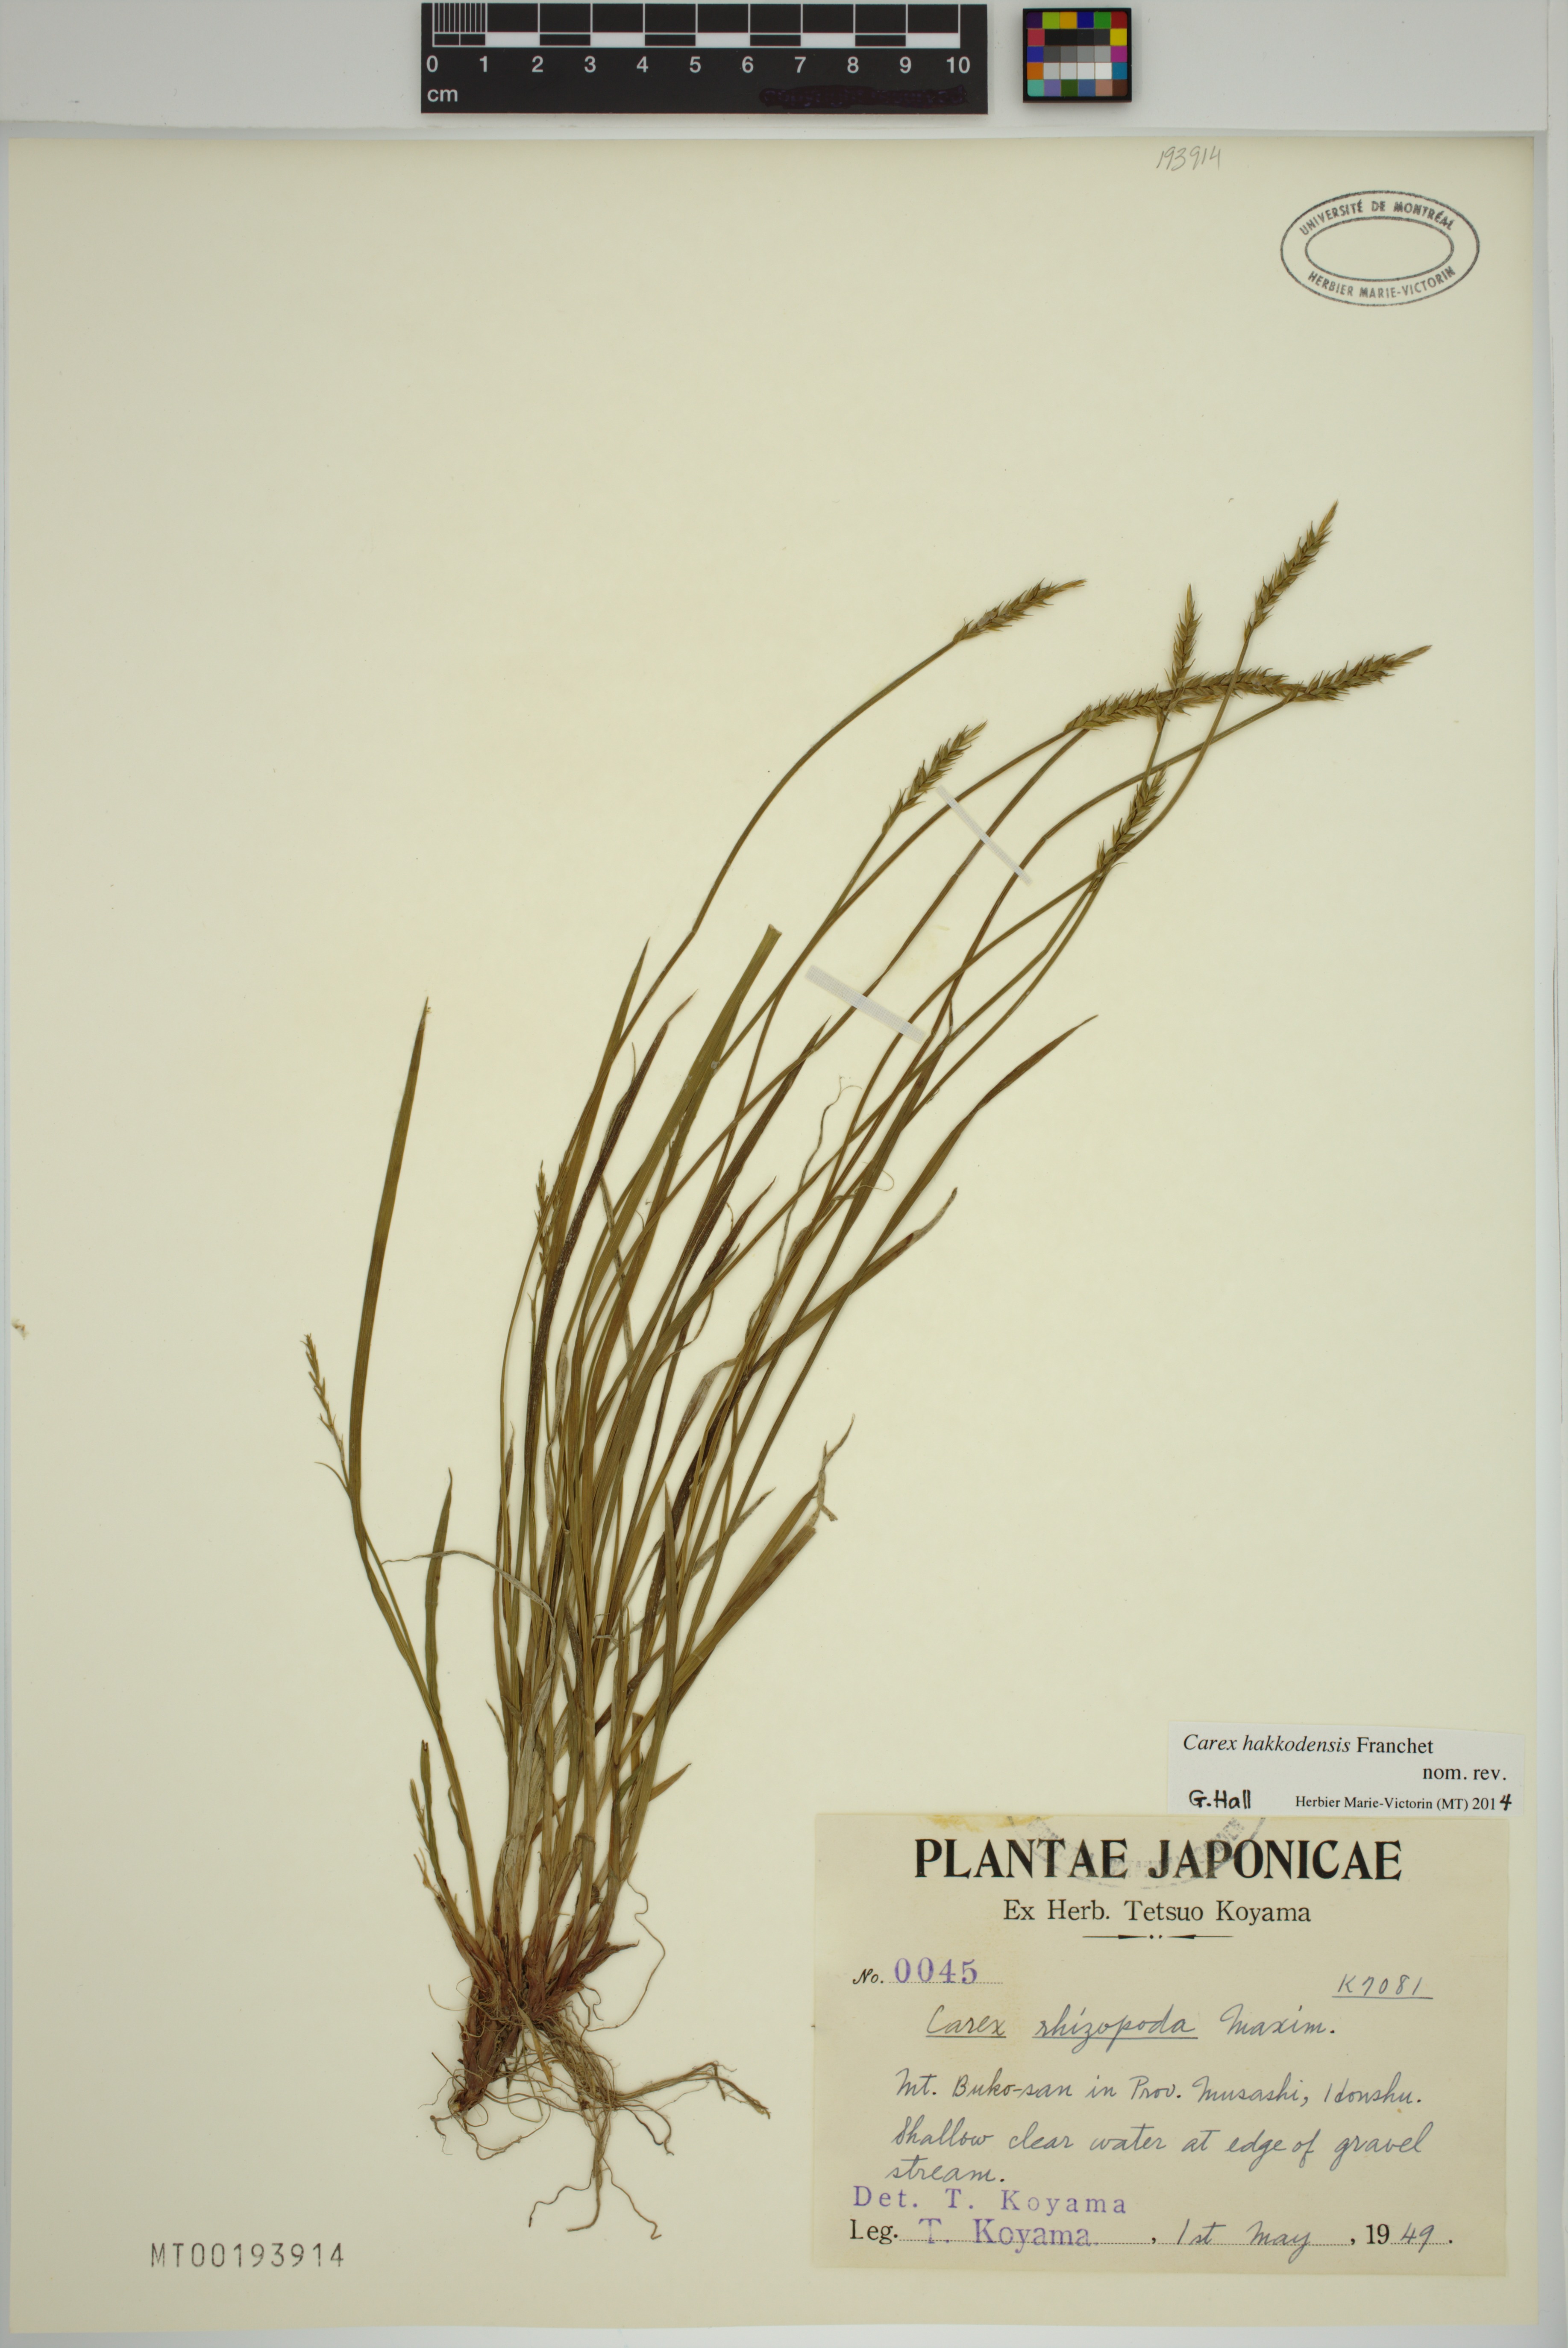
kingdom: Plantae
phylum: Tracheophyta
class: Liliopsida
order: Poales
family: Cyperaceae
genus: Carex
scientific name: Carex hakkodensis
